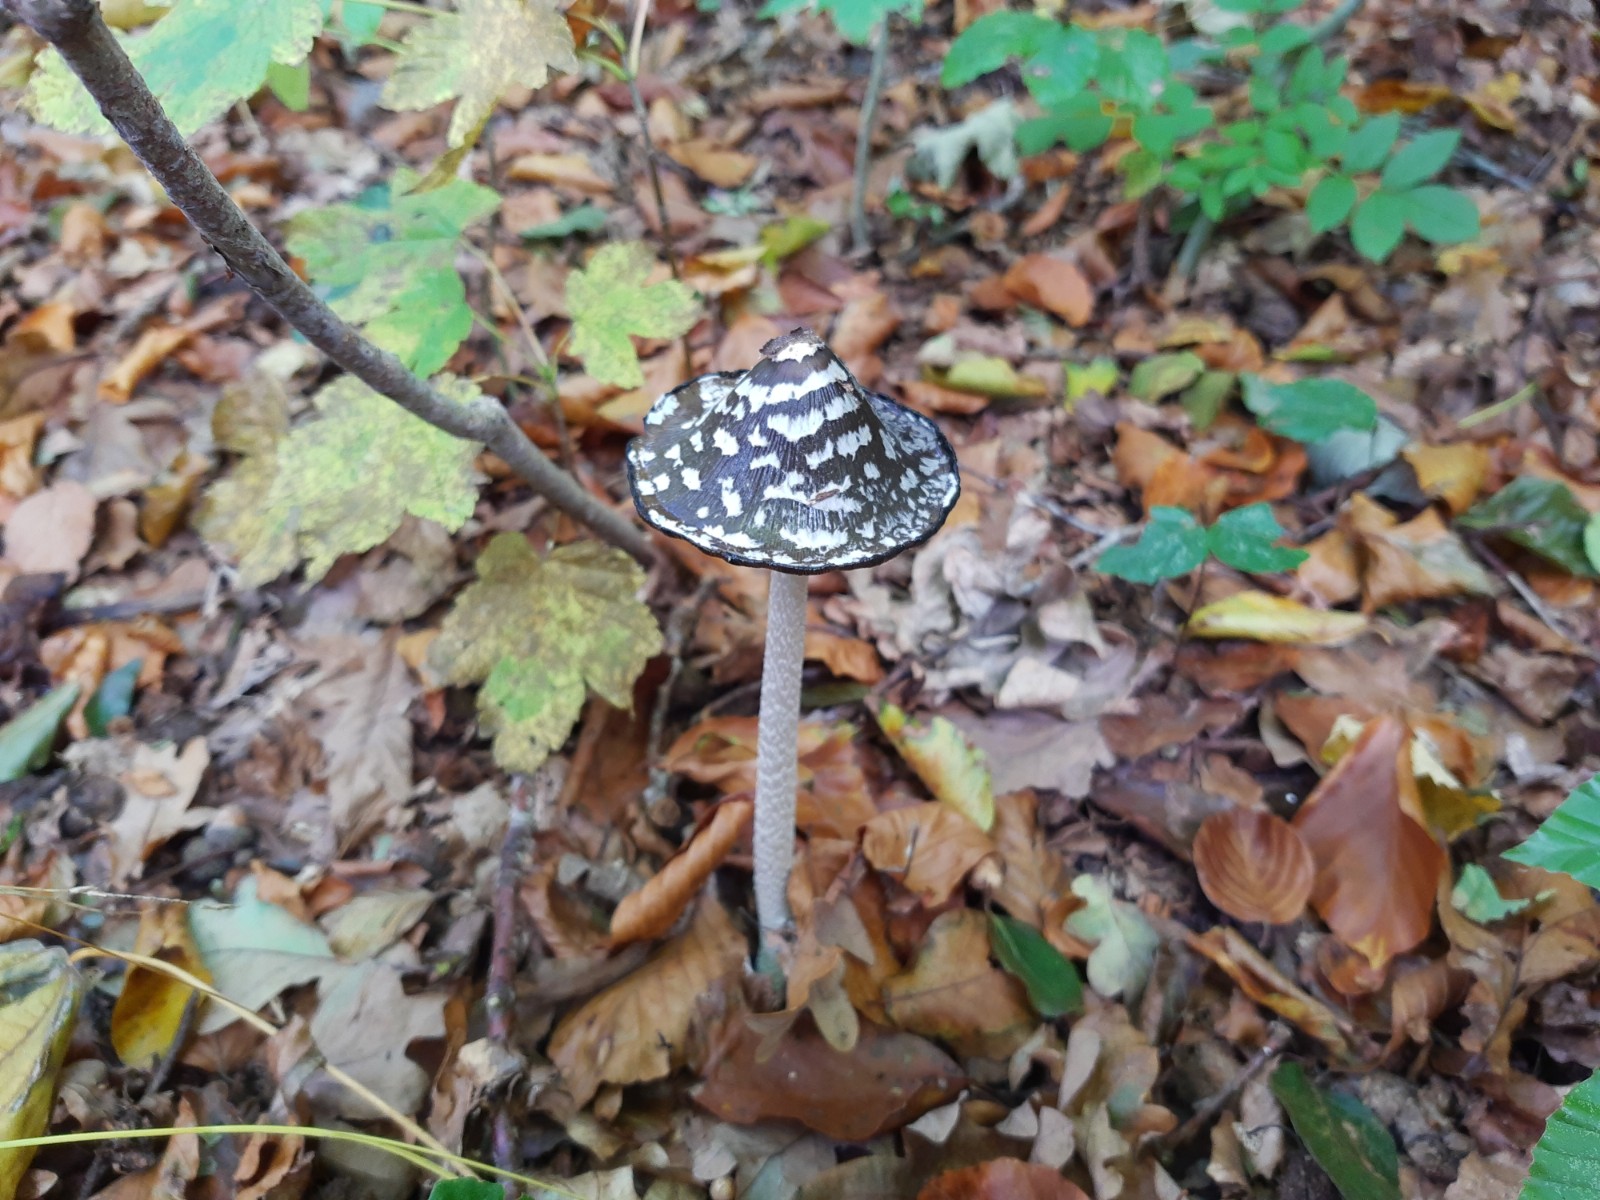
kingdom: Fungi
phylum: Basidiomycota
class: Agaricomycetes
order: Agaricales
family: Psathyrellaceae
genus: Coprinopsis
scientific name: Coprinopsis picacea
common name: skade-blækhat
